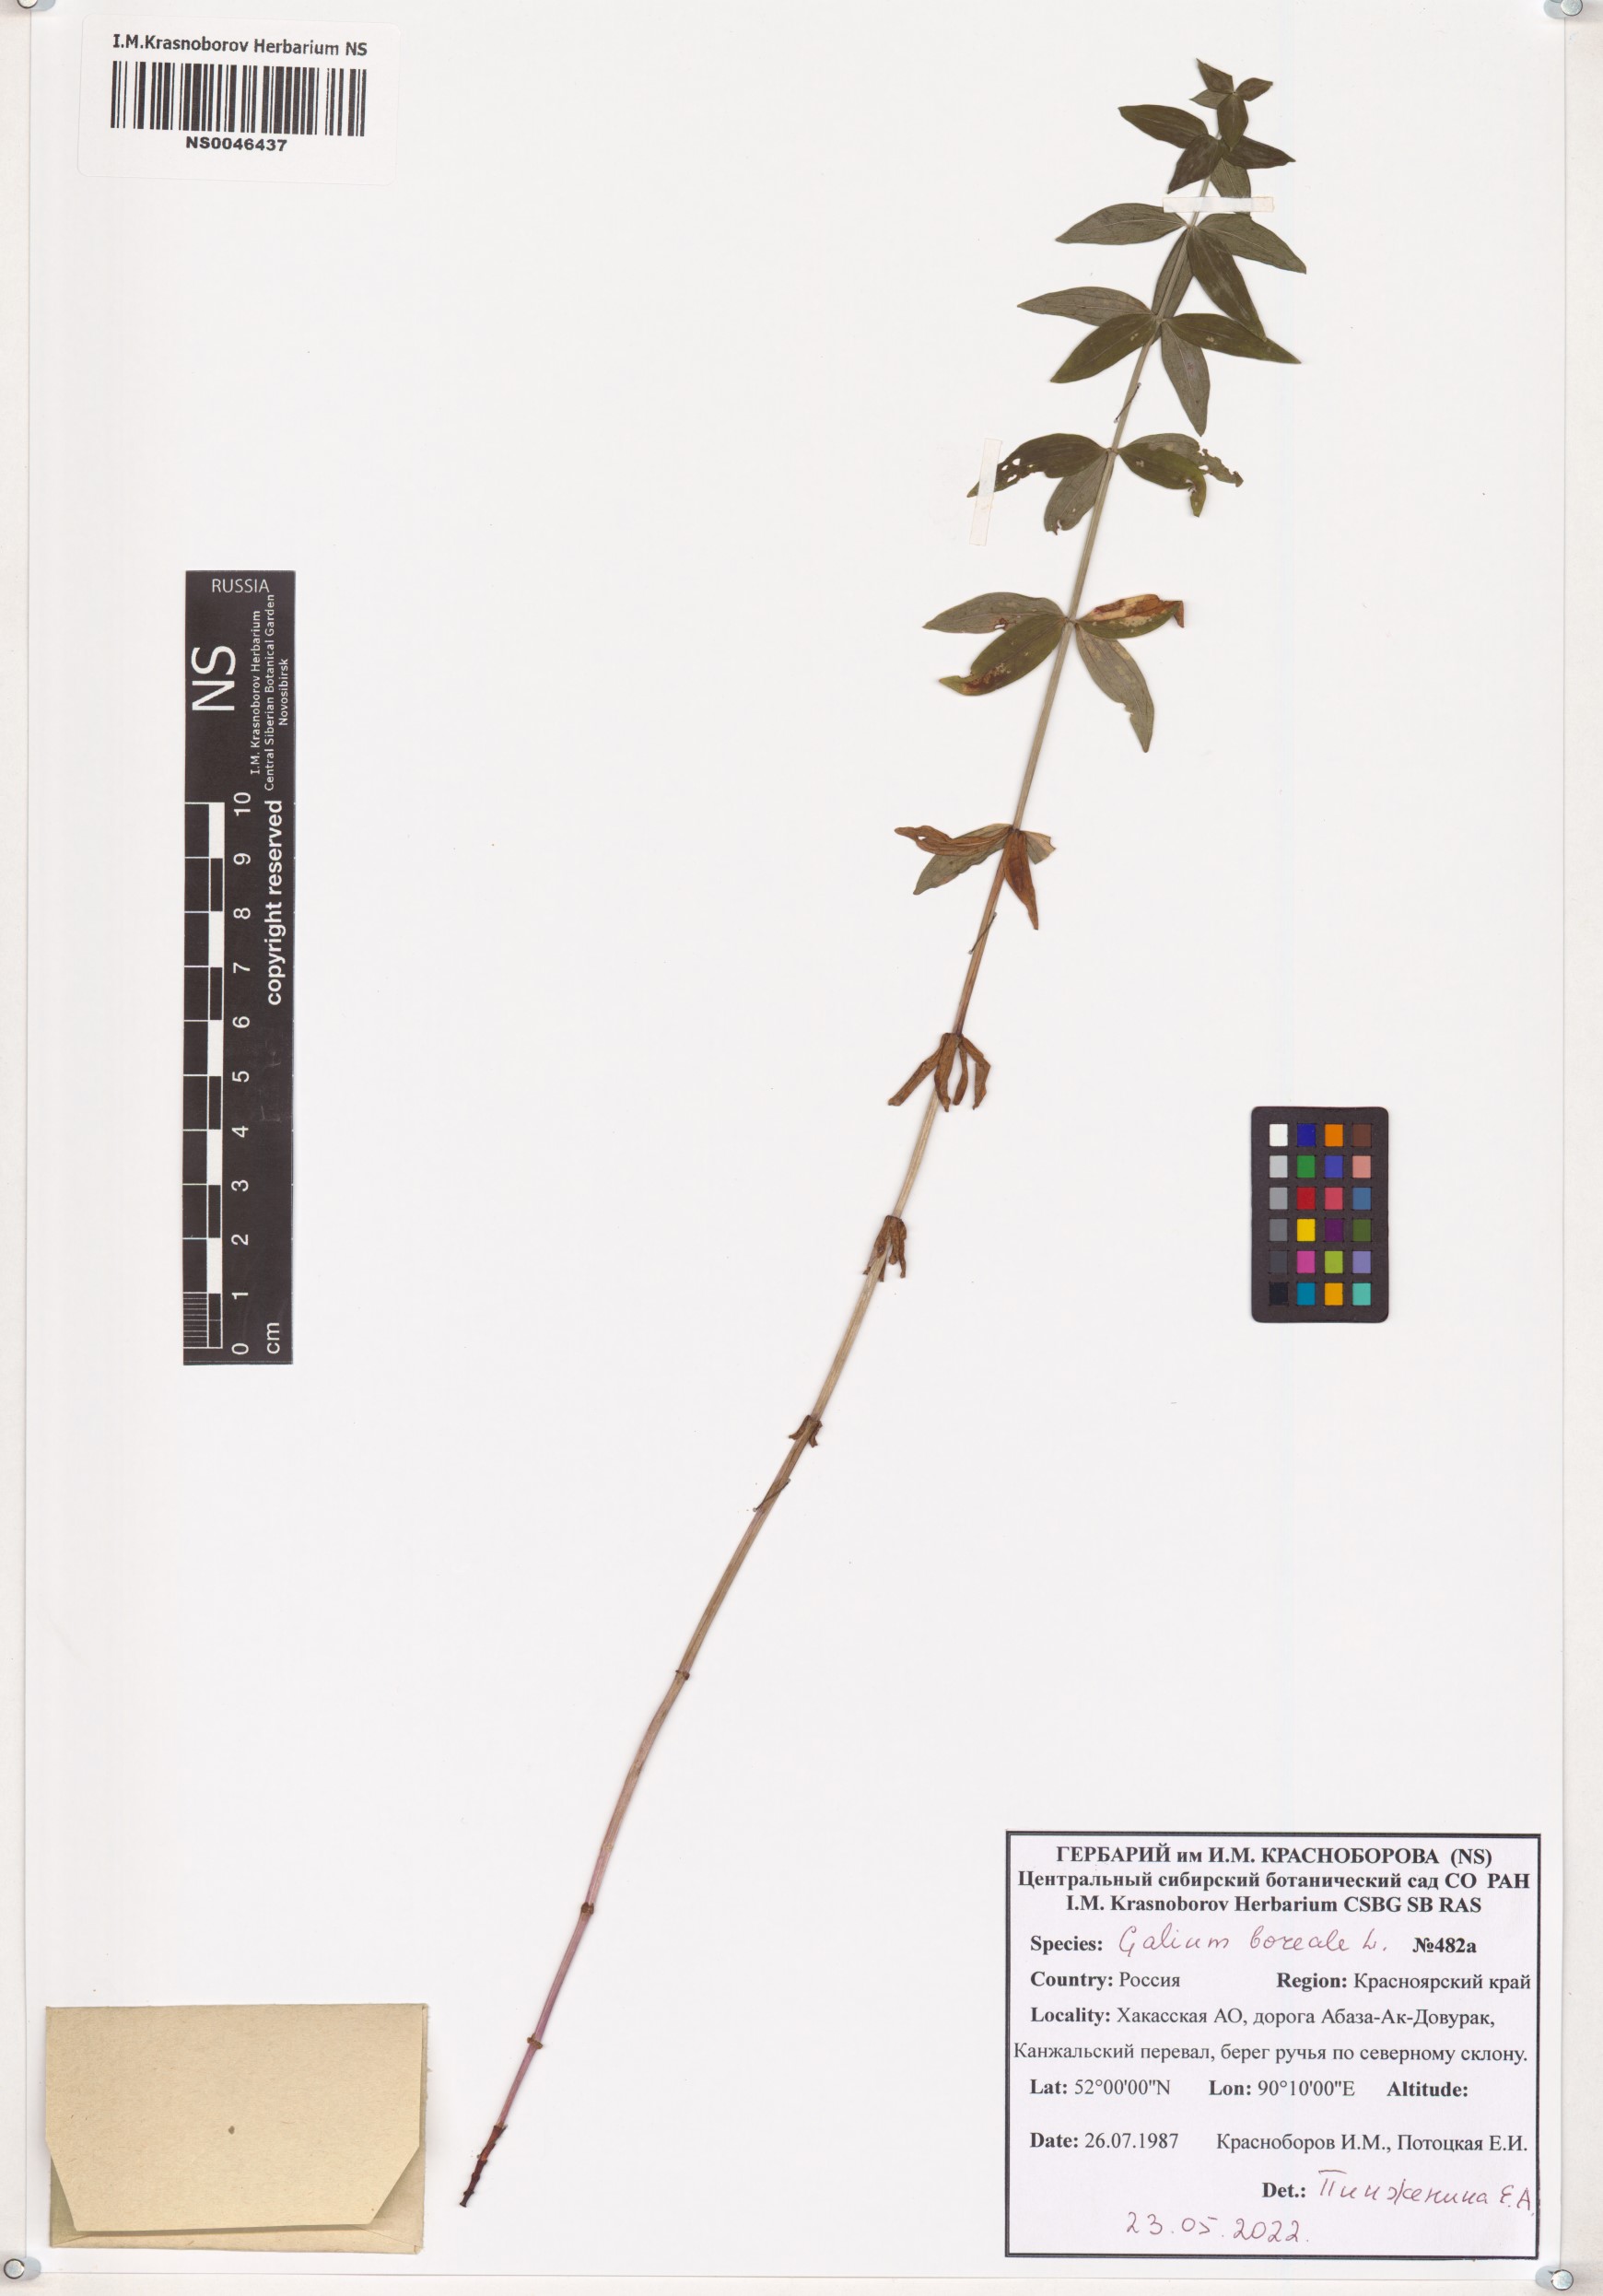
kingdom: Plantae
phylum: Tracheophyta
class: Magnoliopsida
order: Gentianales
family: Rubiaceae
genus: Galium
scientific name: Galium boreale
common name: Northern bedstraw
